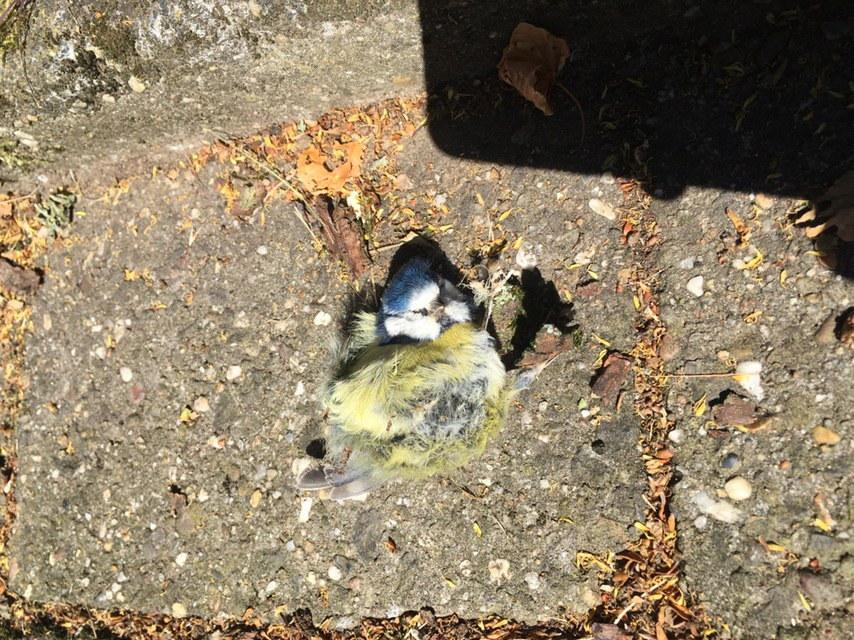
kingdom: Animalia
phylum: Chordata
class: Aves
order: Passeriformes
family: Paridae
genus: Cyanistes
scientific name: Cyanistes caeruleus
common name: Eurasian blue tit
